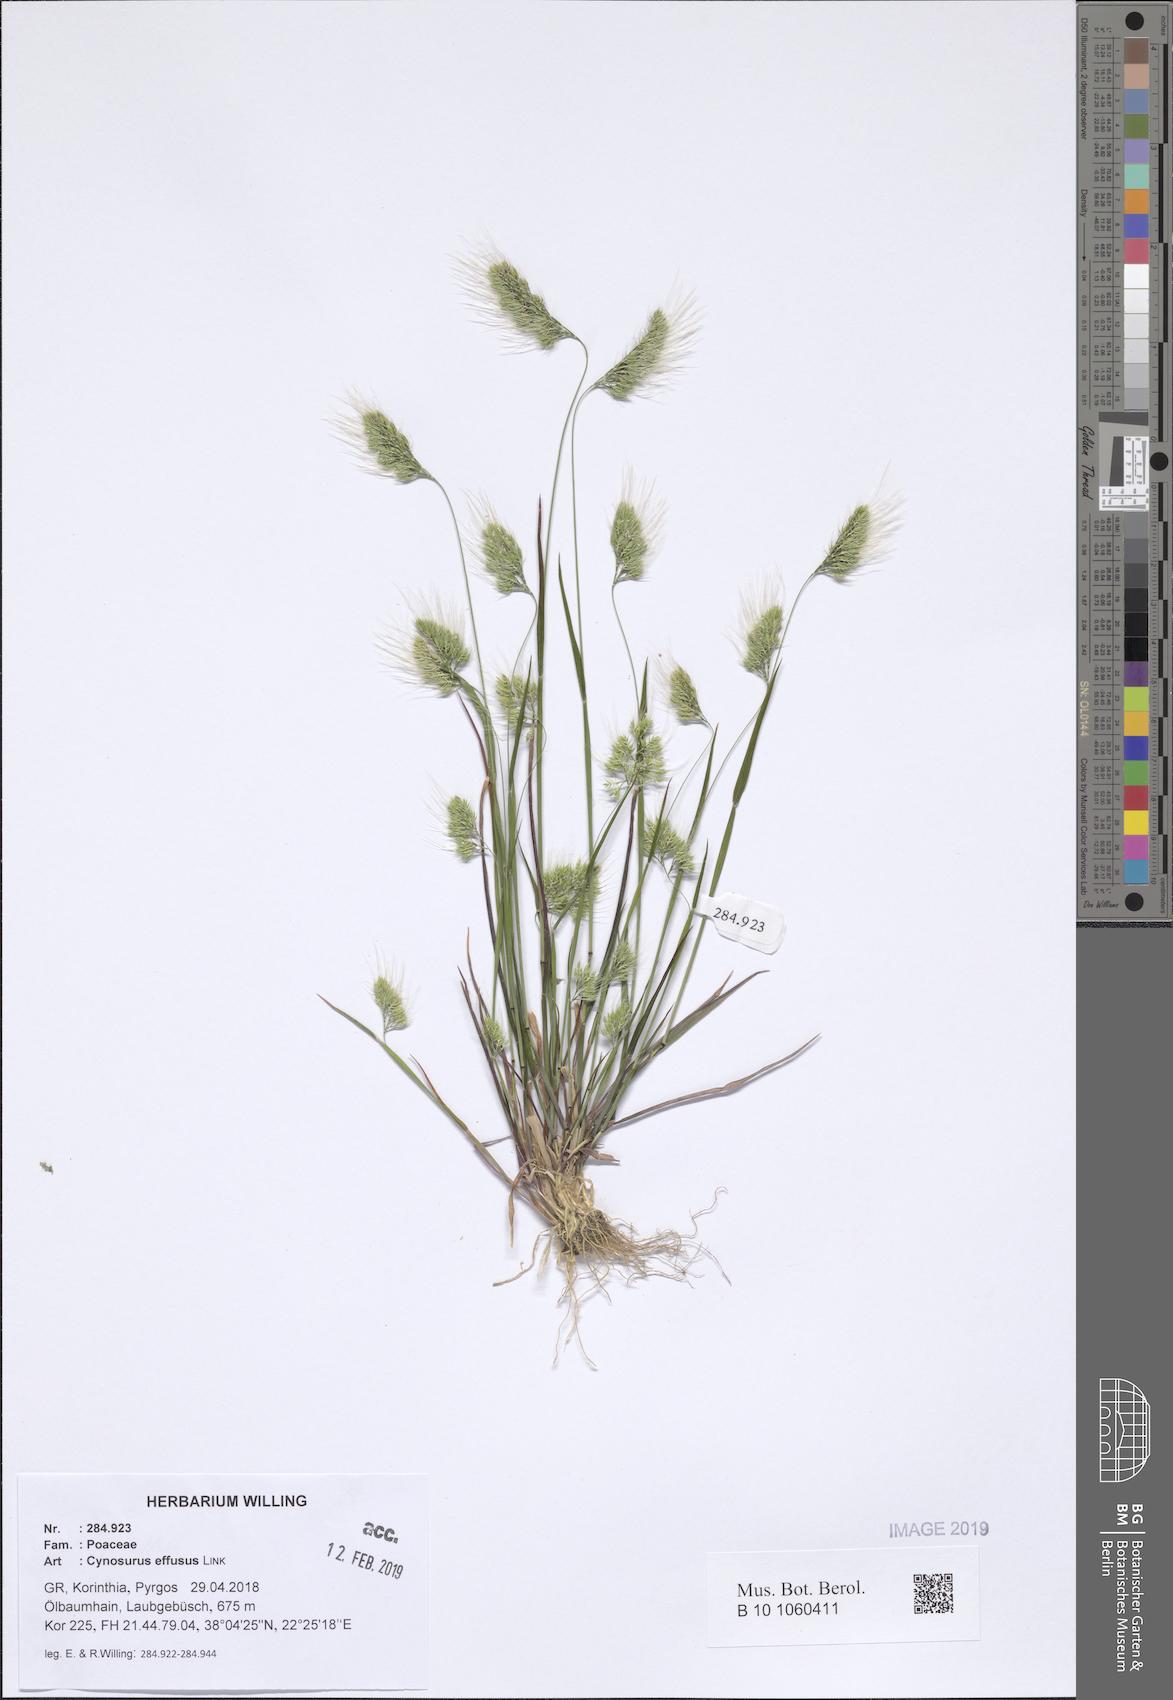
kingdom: Plantae
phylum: Tracheophyta
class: Liliopsida
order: Poales
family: Poaceae
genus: Cynosurus
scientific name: Cynosurus effusus
